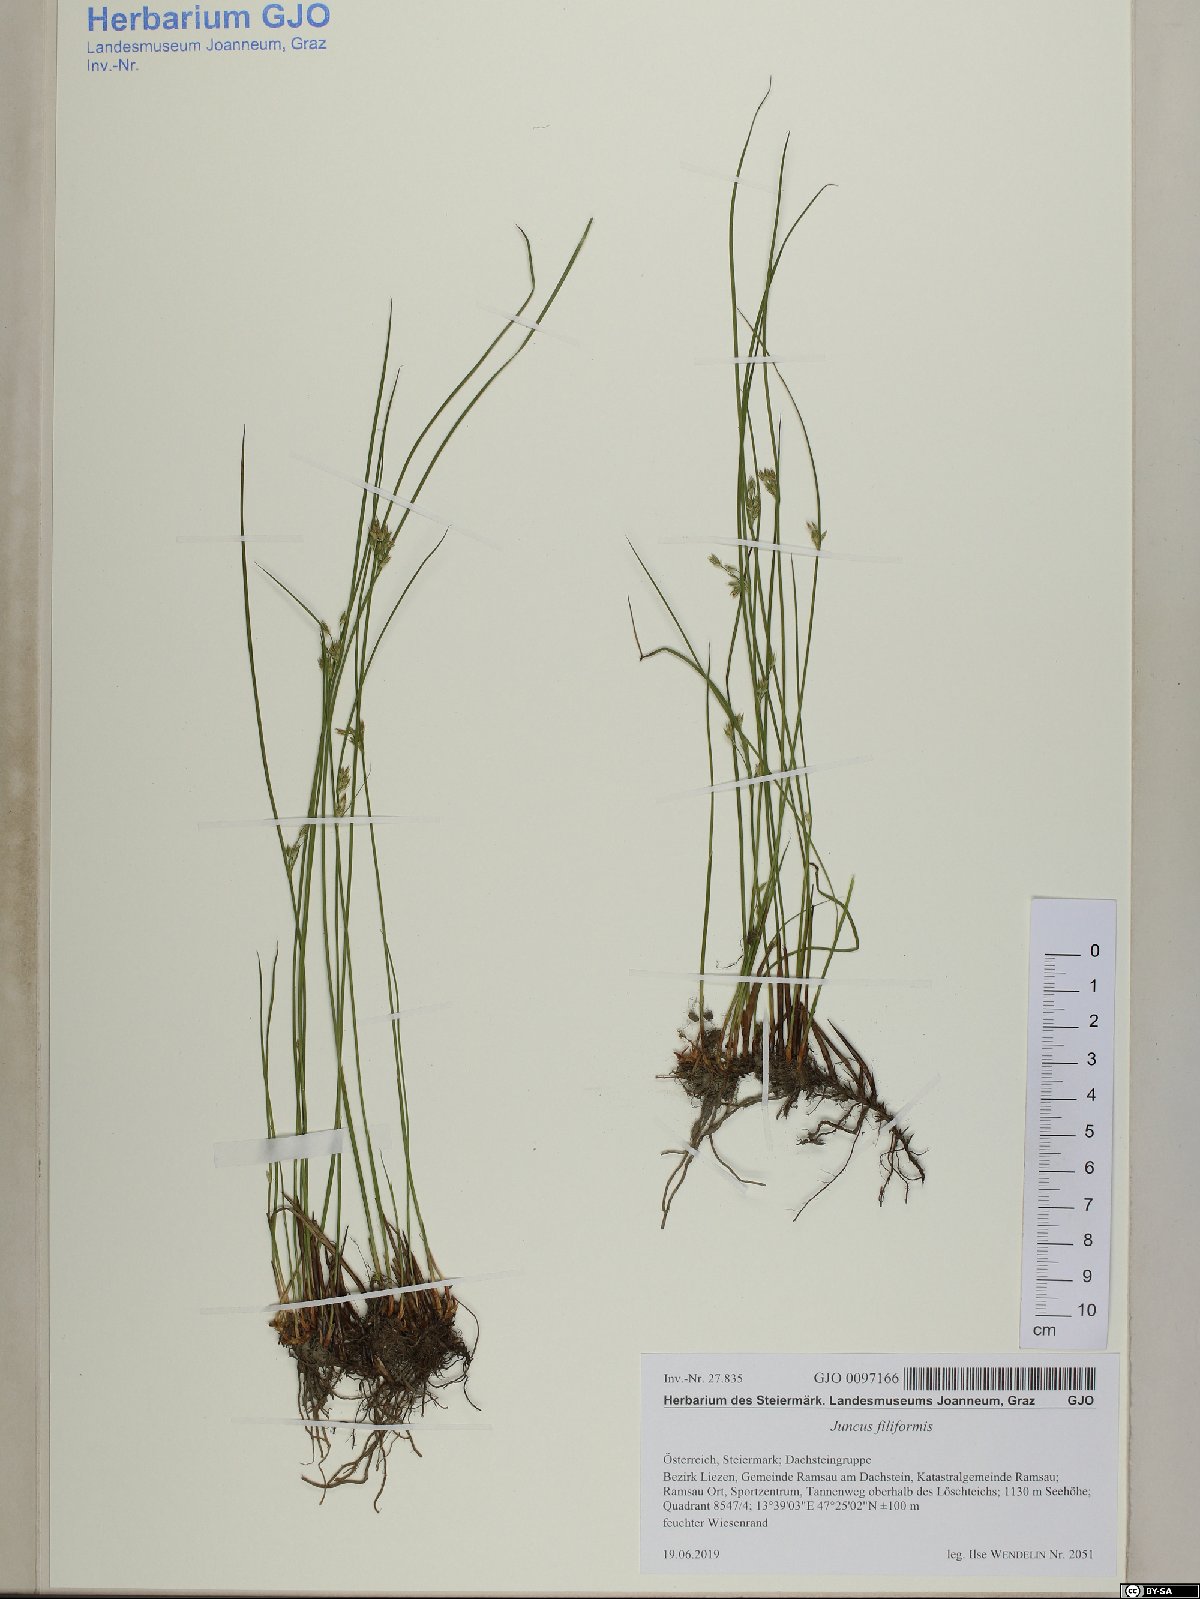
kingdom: Plantae
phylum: Tracheophyta
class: Liliopsida
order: Poales
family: Juncaceae
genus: Juncus
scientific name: Juncus filiformis
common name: Thread rush
